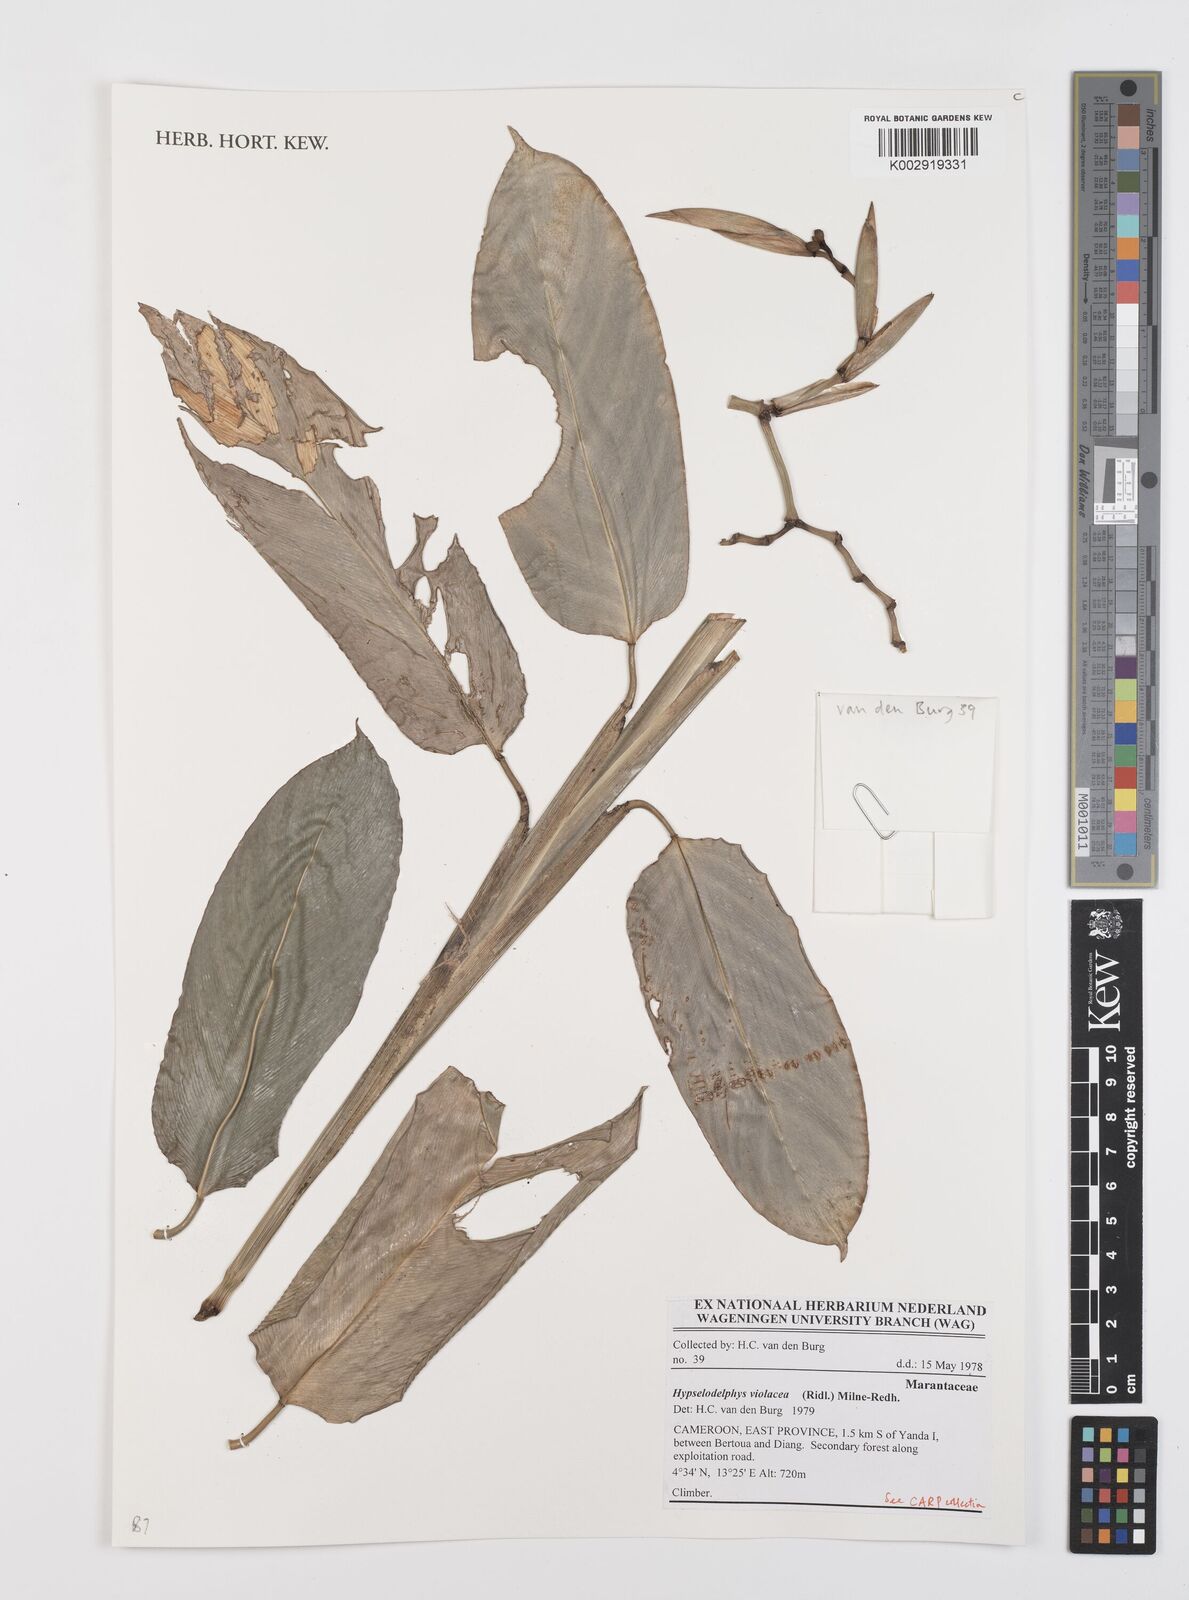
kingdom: Plantae
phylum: Tracheophyta
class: Liliopsida
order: Zingiberales
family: Marantaceae
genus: Hypselodelphys
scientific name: Hypselodelphys violacea
